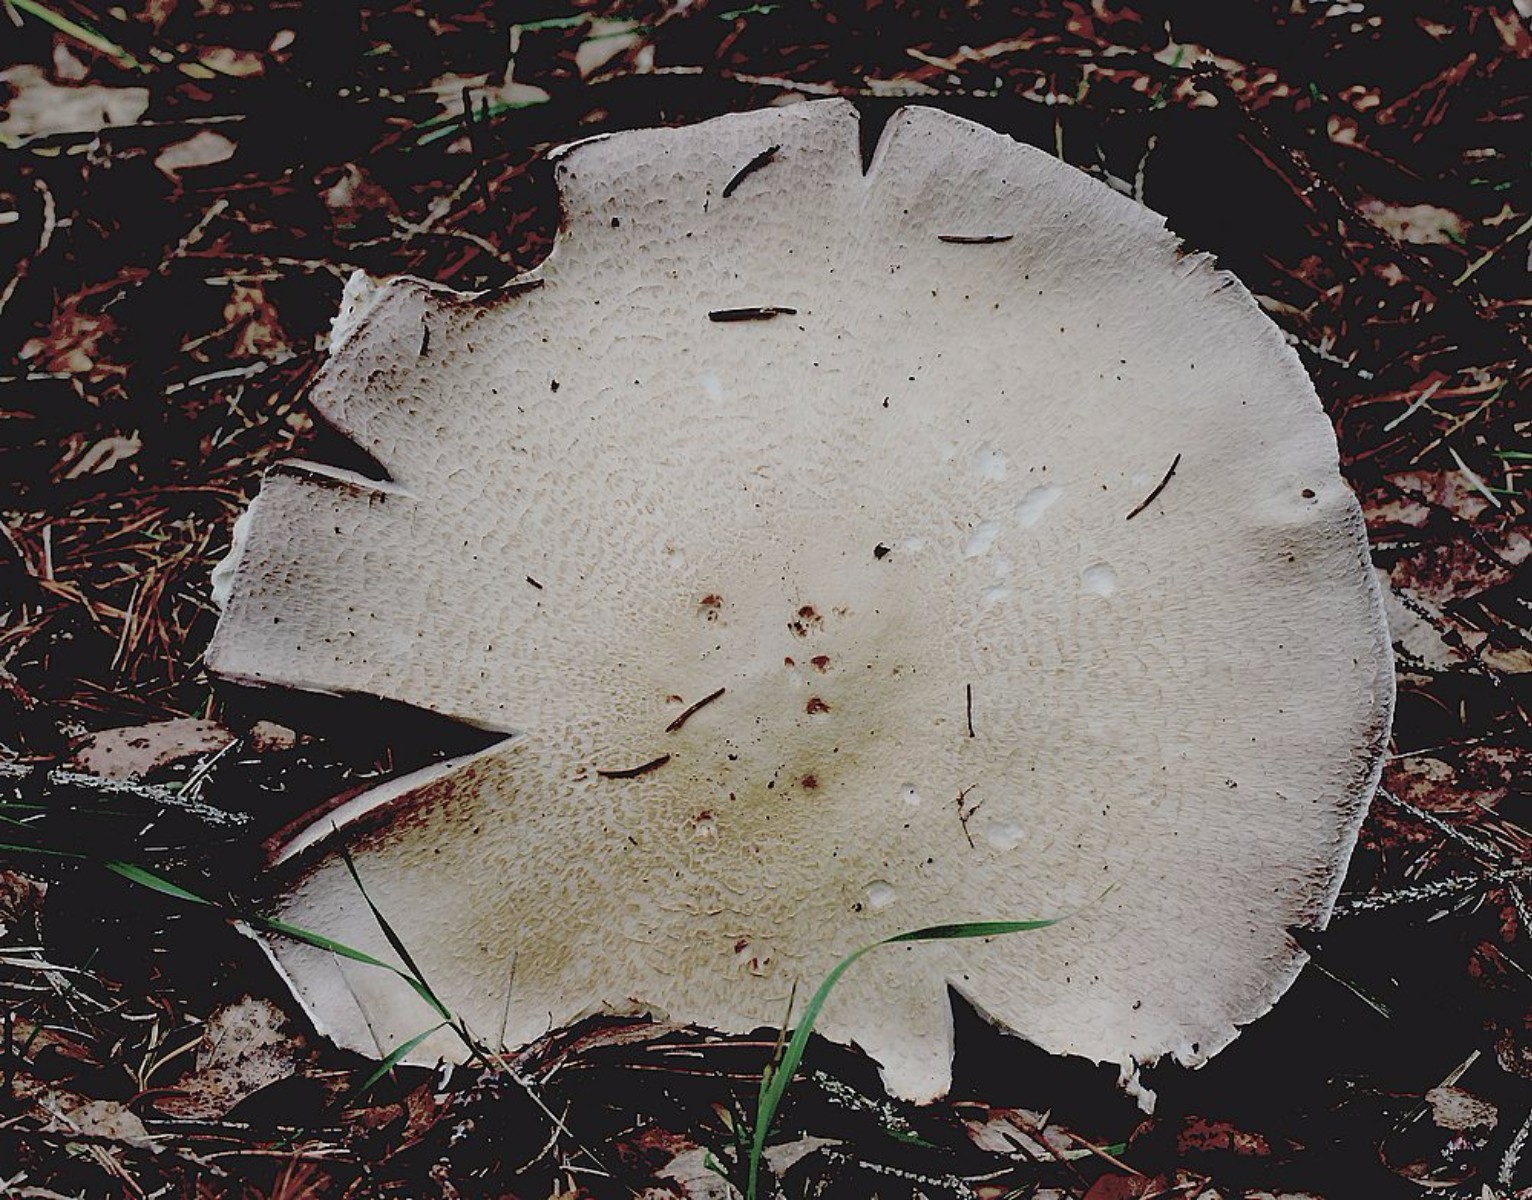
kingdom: Fungi
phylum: Basidiomycota
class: Agaricomycetes
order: Agaricales
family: Agaricaceae
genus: Agaricus
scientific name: Agaricus
